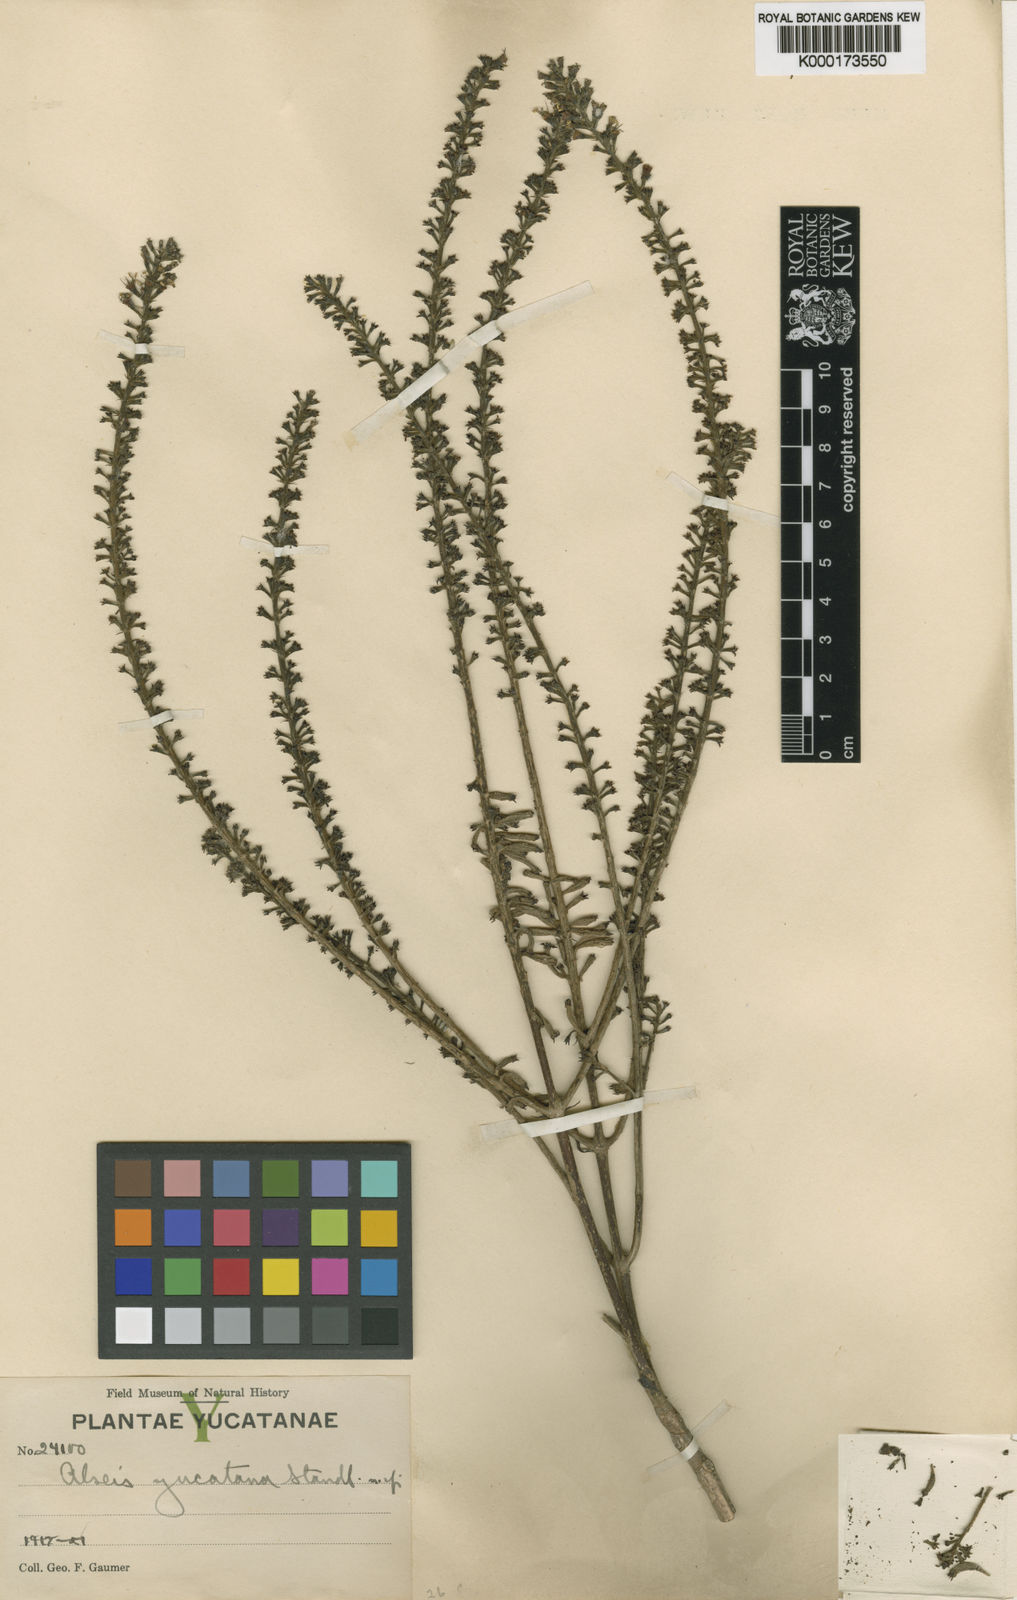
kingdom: Plantae
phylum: Tracheophyta
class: Magnoliopsida
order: Gentianales
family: Rubiaceae
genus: Alseis
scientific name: Alseis yucatanensis
